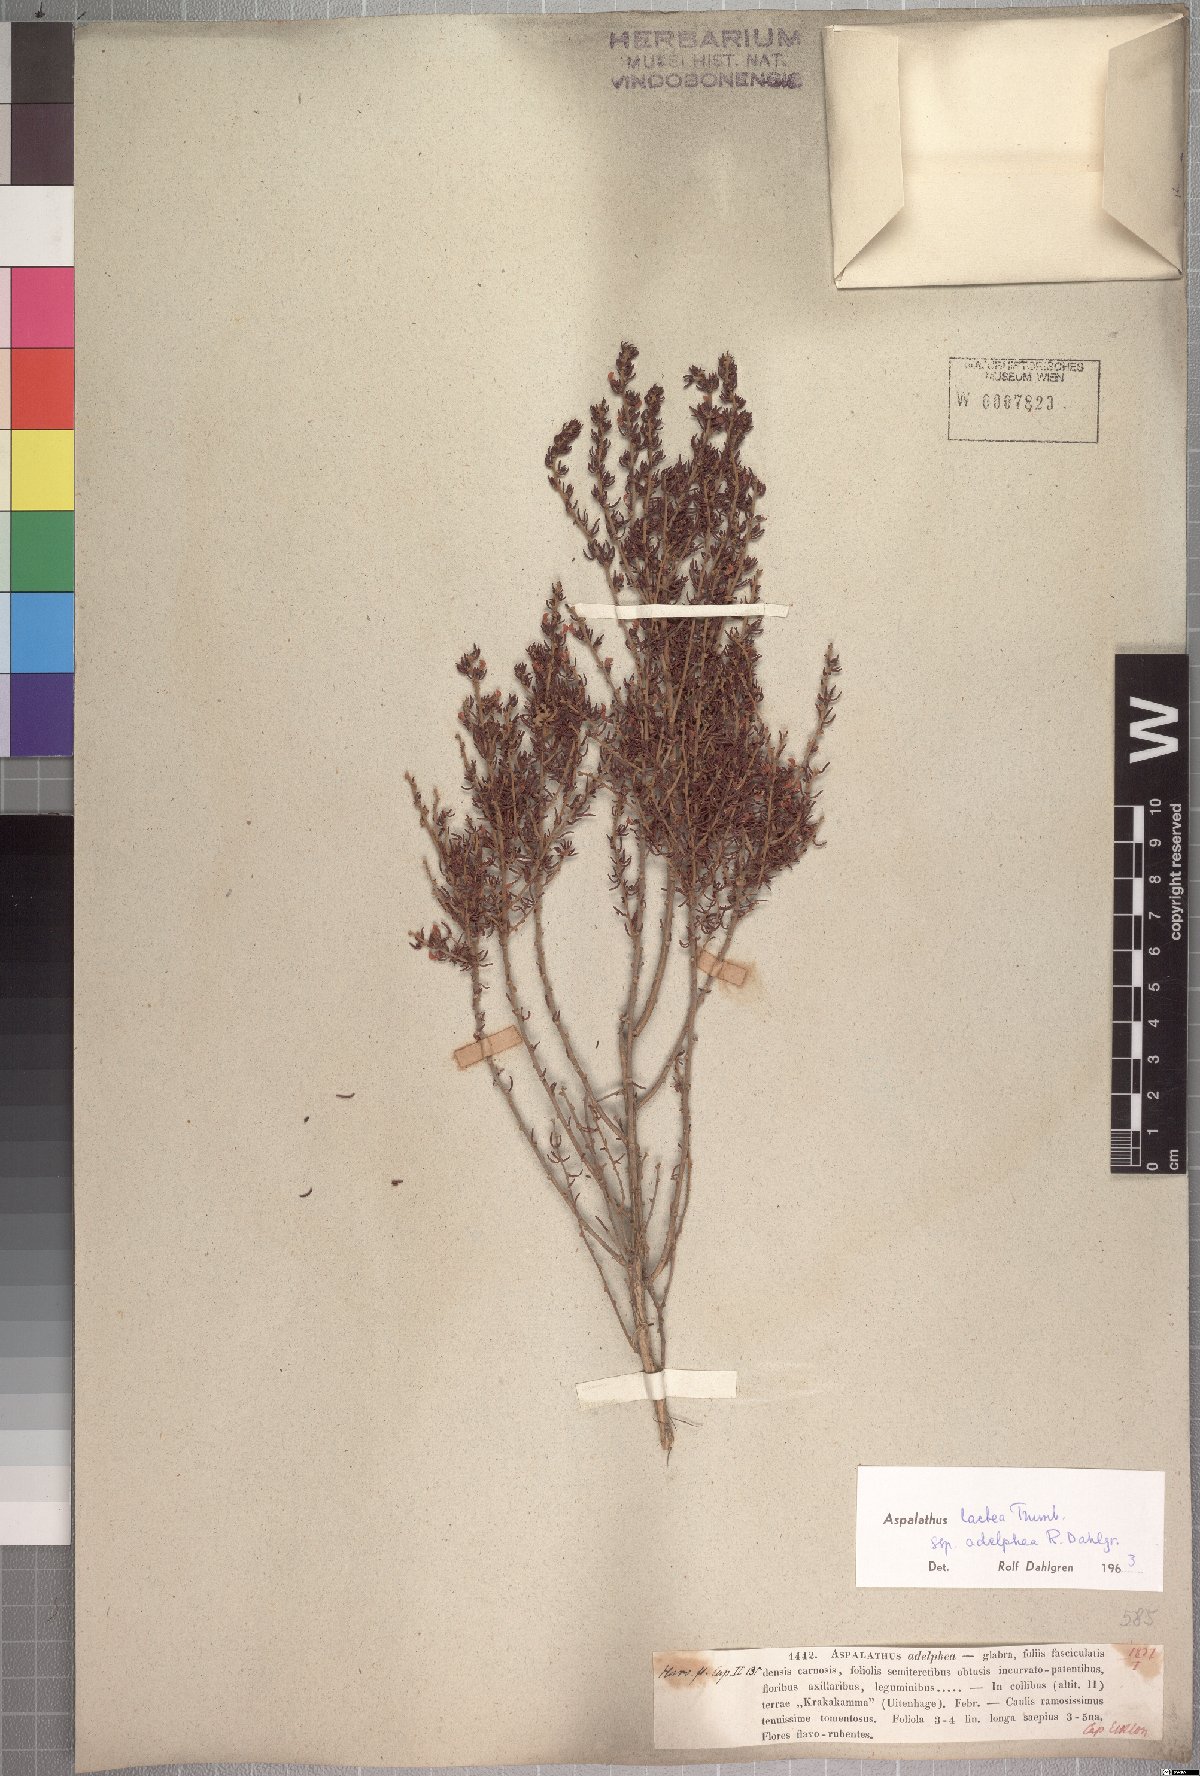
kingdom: Plantae
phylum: Tracheophyta
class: Magnoliopsida
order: Fabales
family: Fabaceae
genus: Aspalathus
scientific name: Aspalathus subtingens
